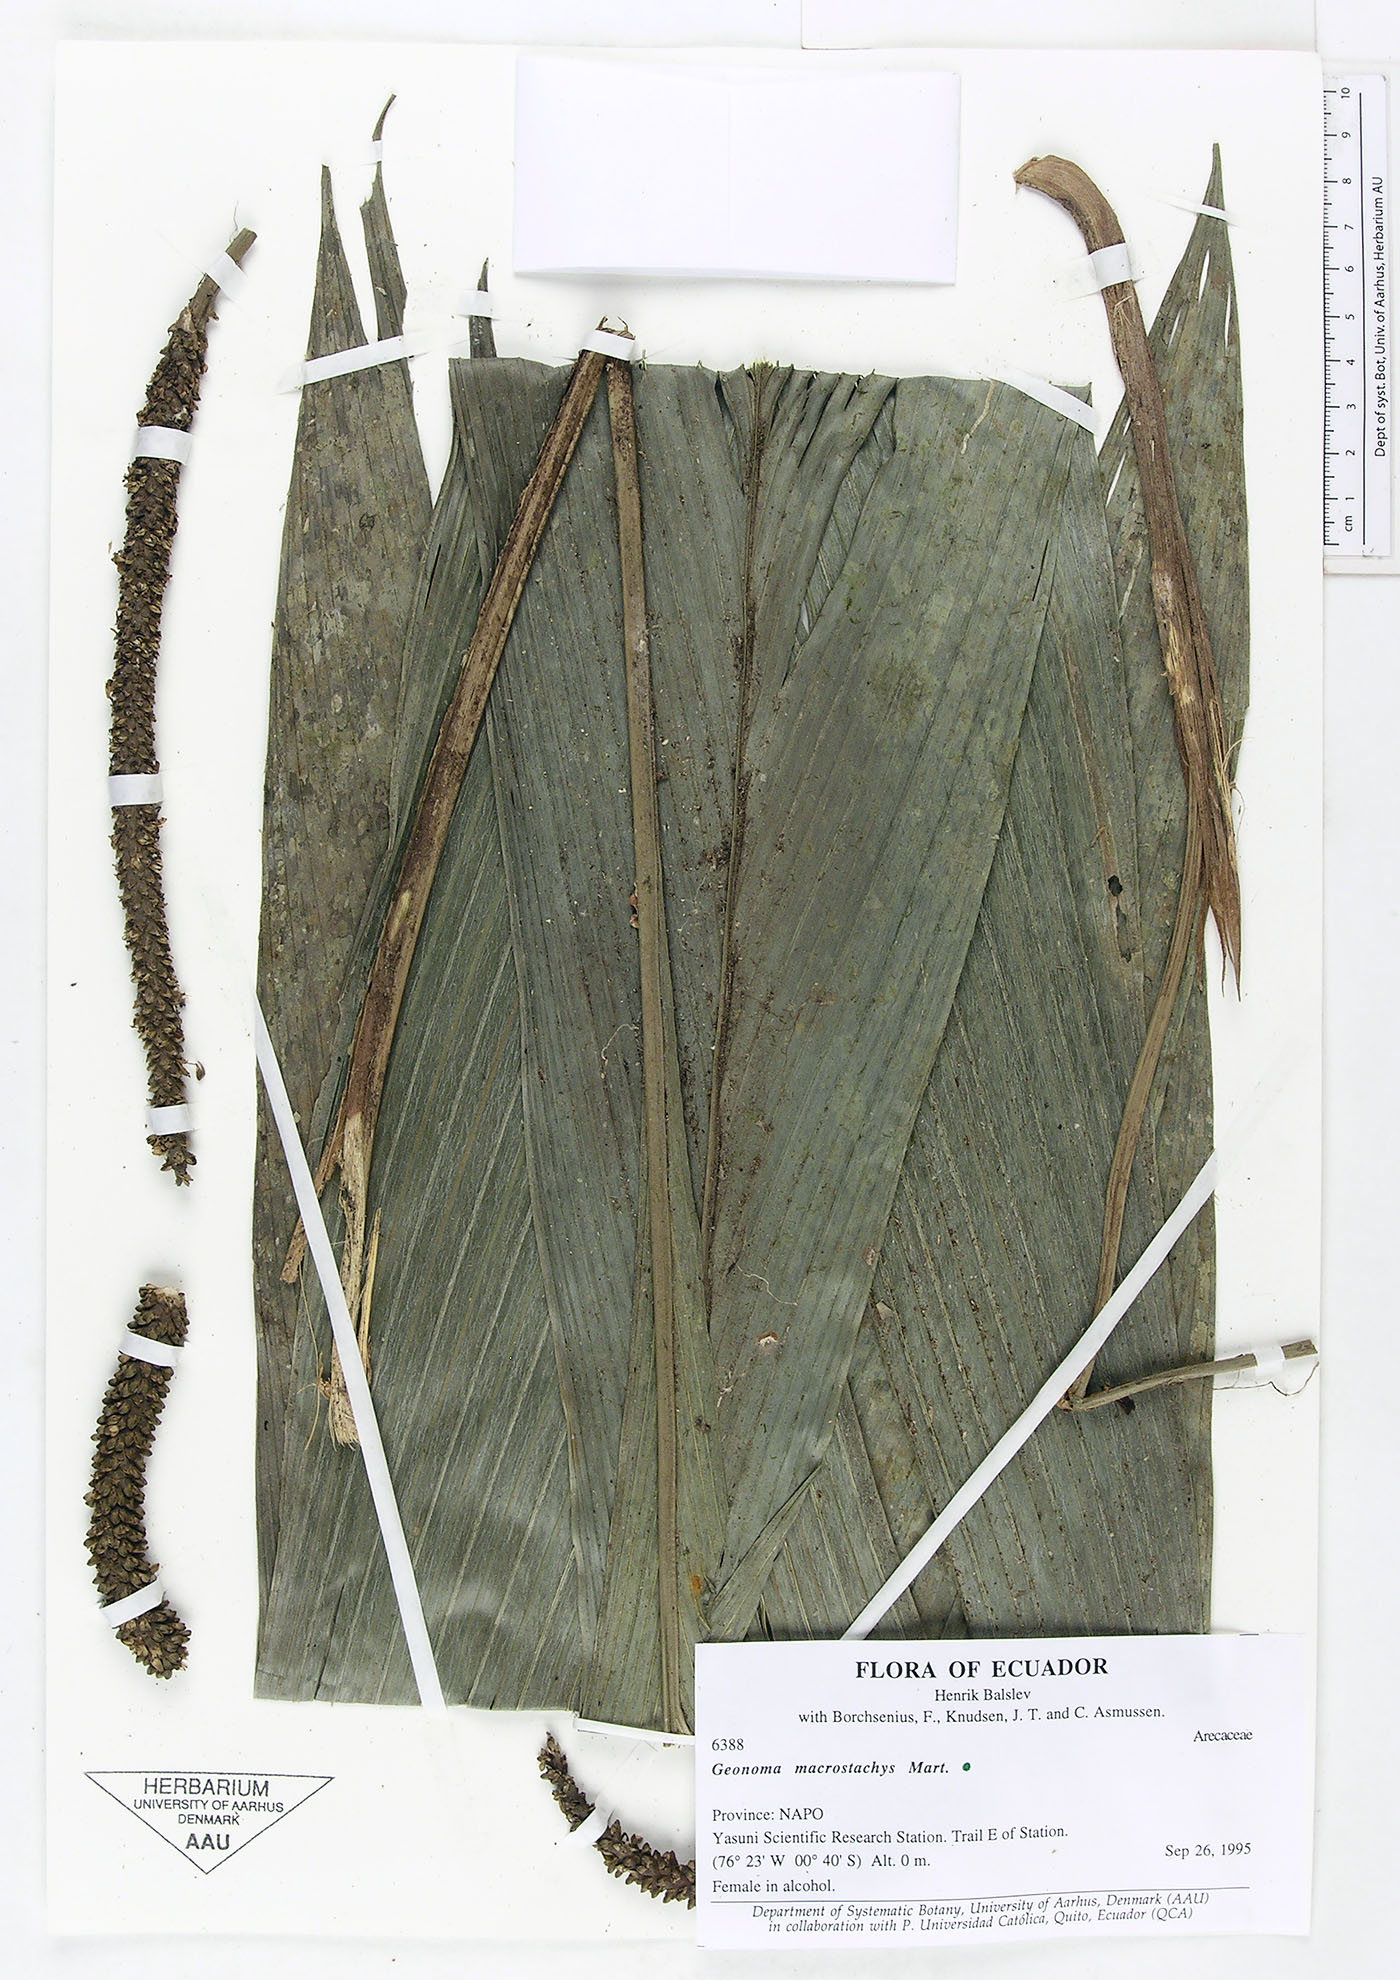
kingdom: Plantae
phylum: Tracheophyta
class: Liliopsida
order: Arecales
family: Arecaceae
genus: Geonoma
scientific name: Geonoma macrostachys
